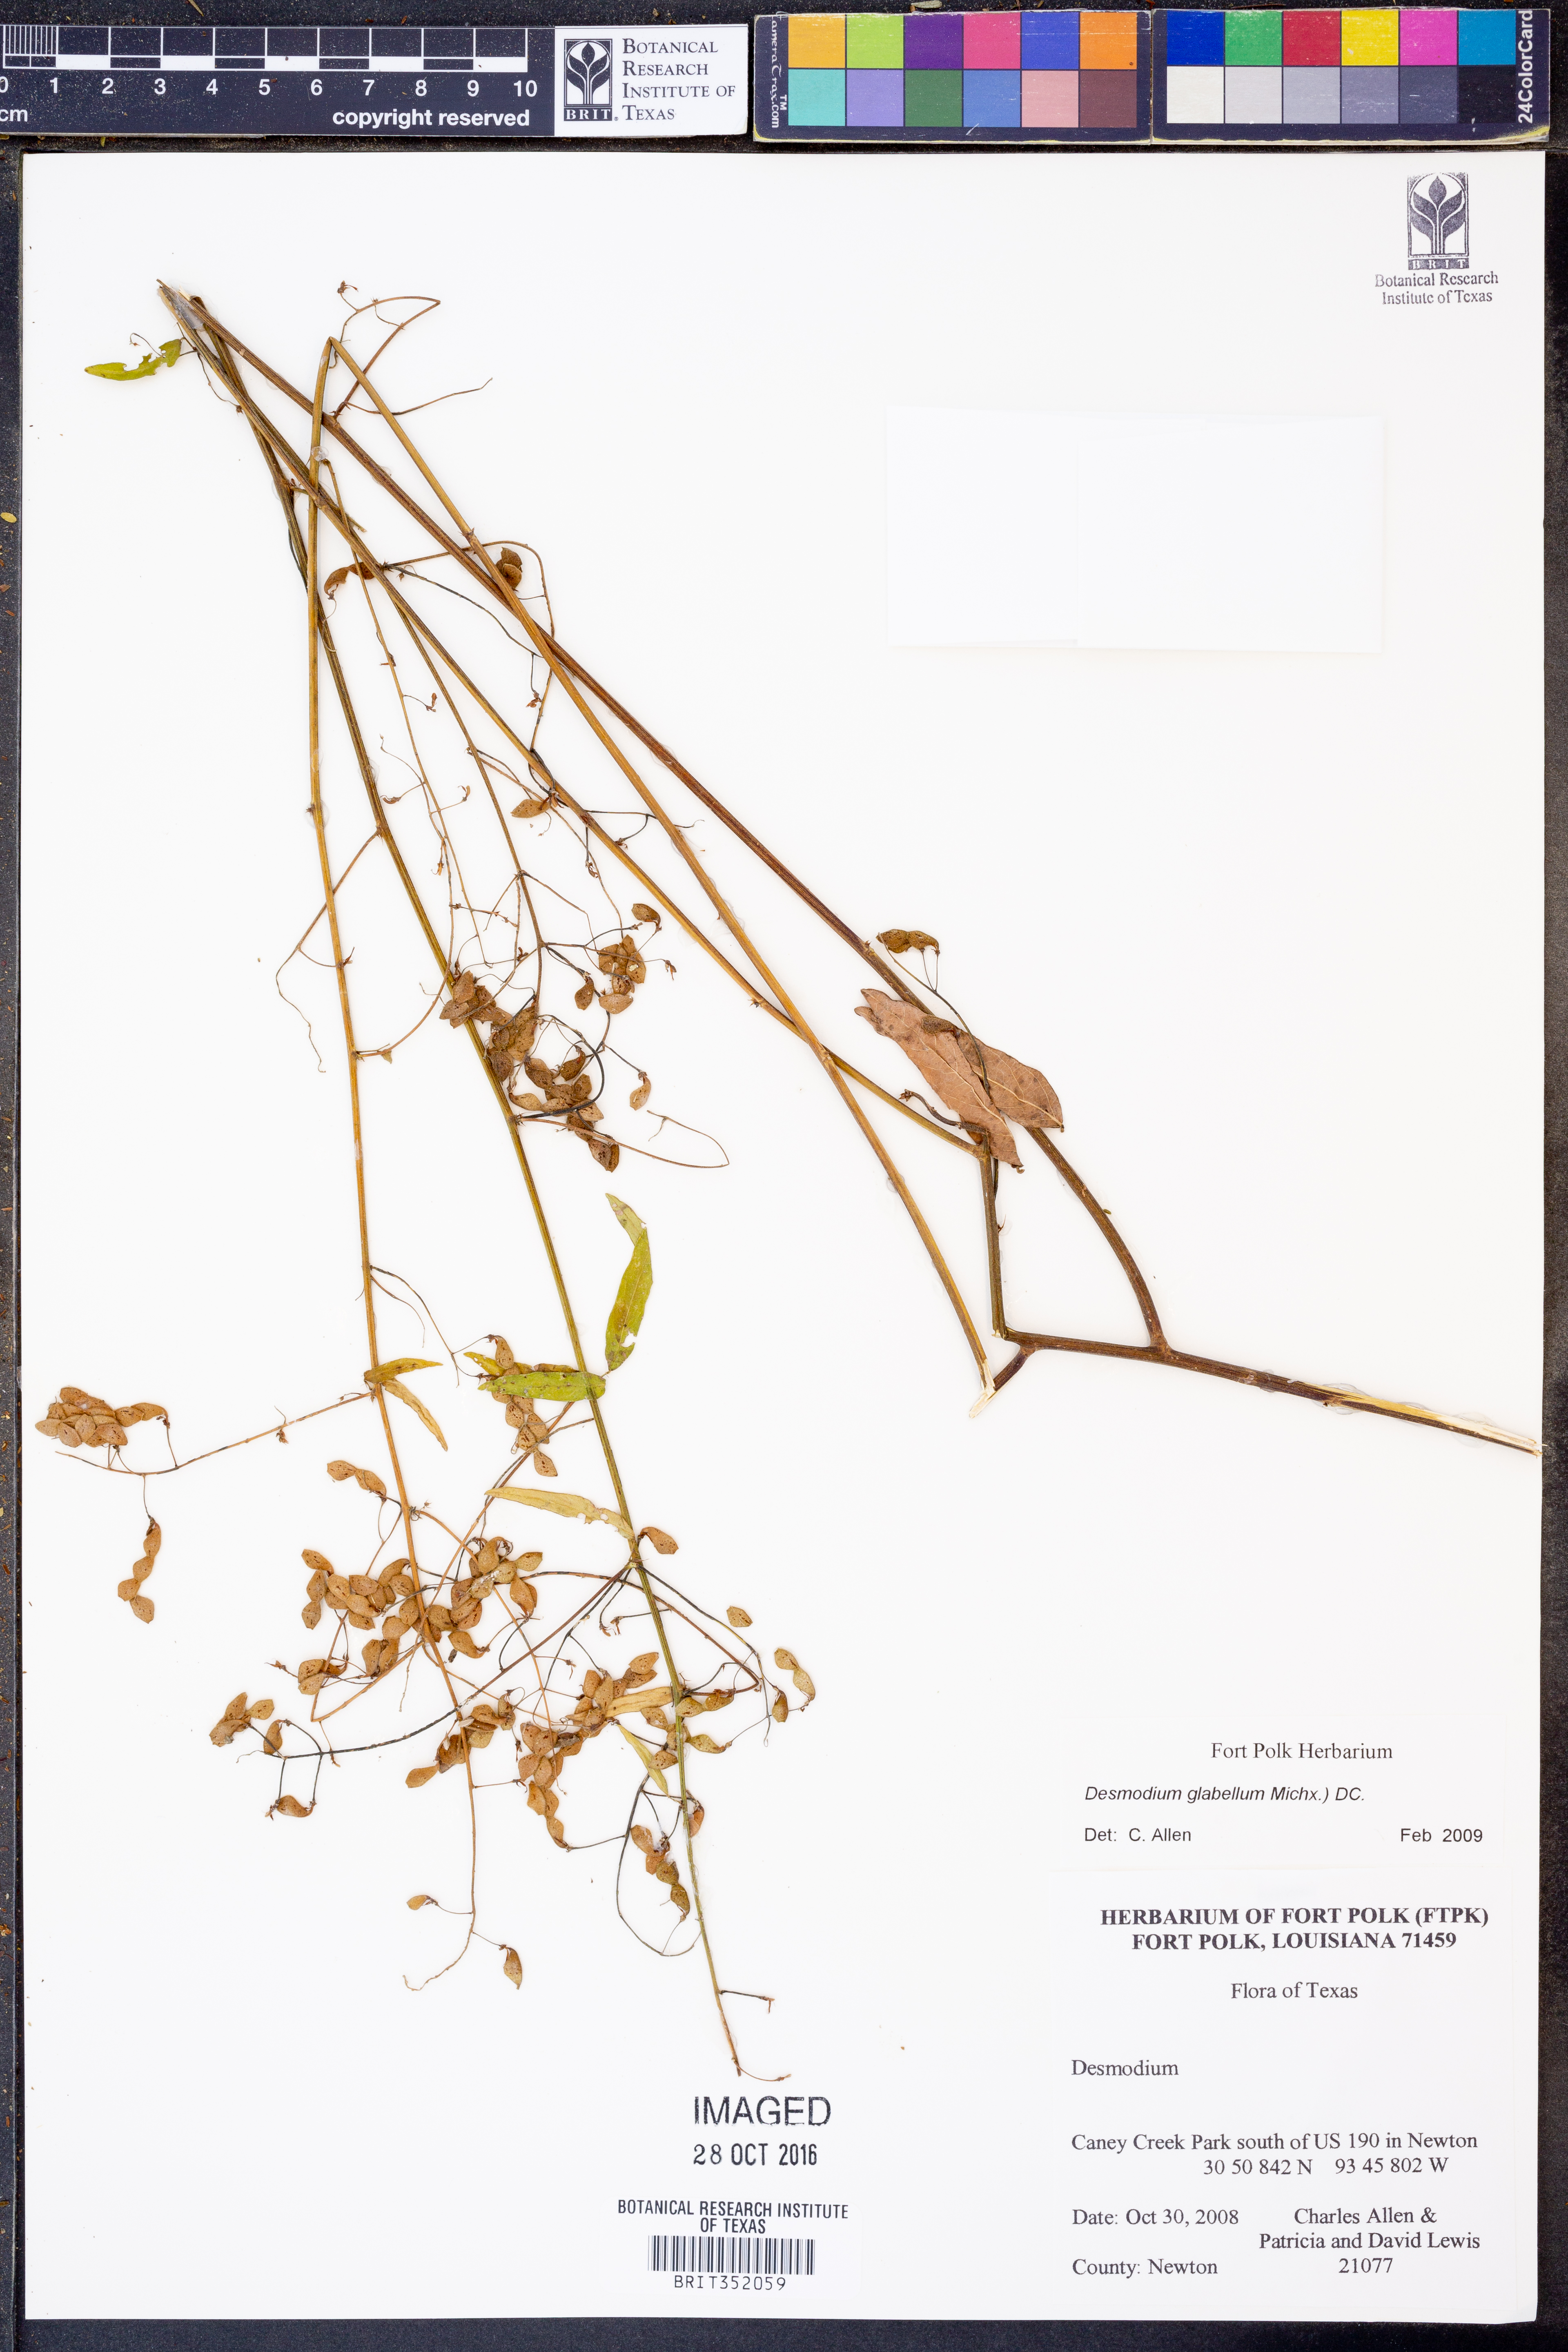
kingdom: Plantae
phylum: Tracheophyta
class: Magnoliopsida
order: Fabales
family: Fabaceae
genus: Desmodium
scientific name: Desmodium glabellum
